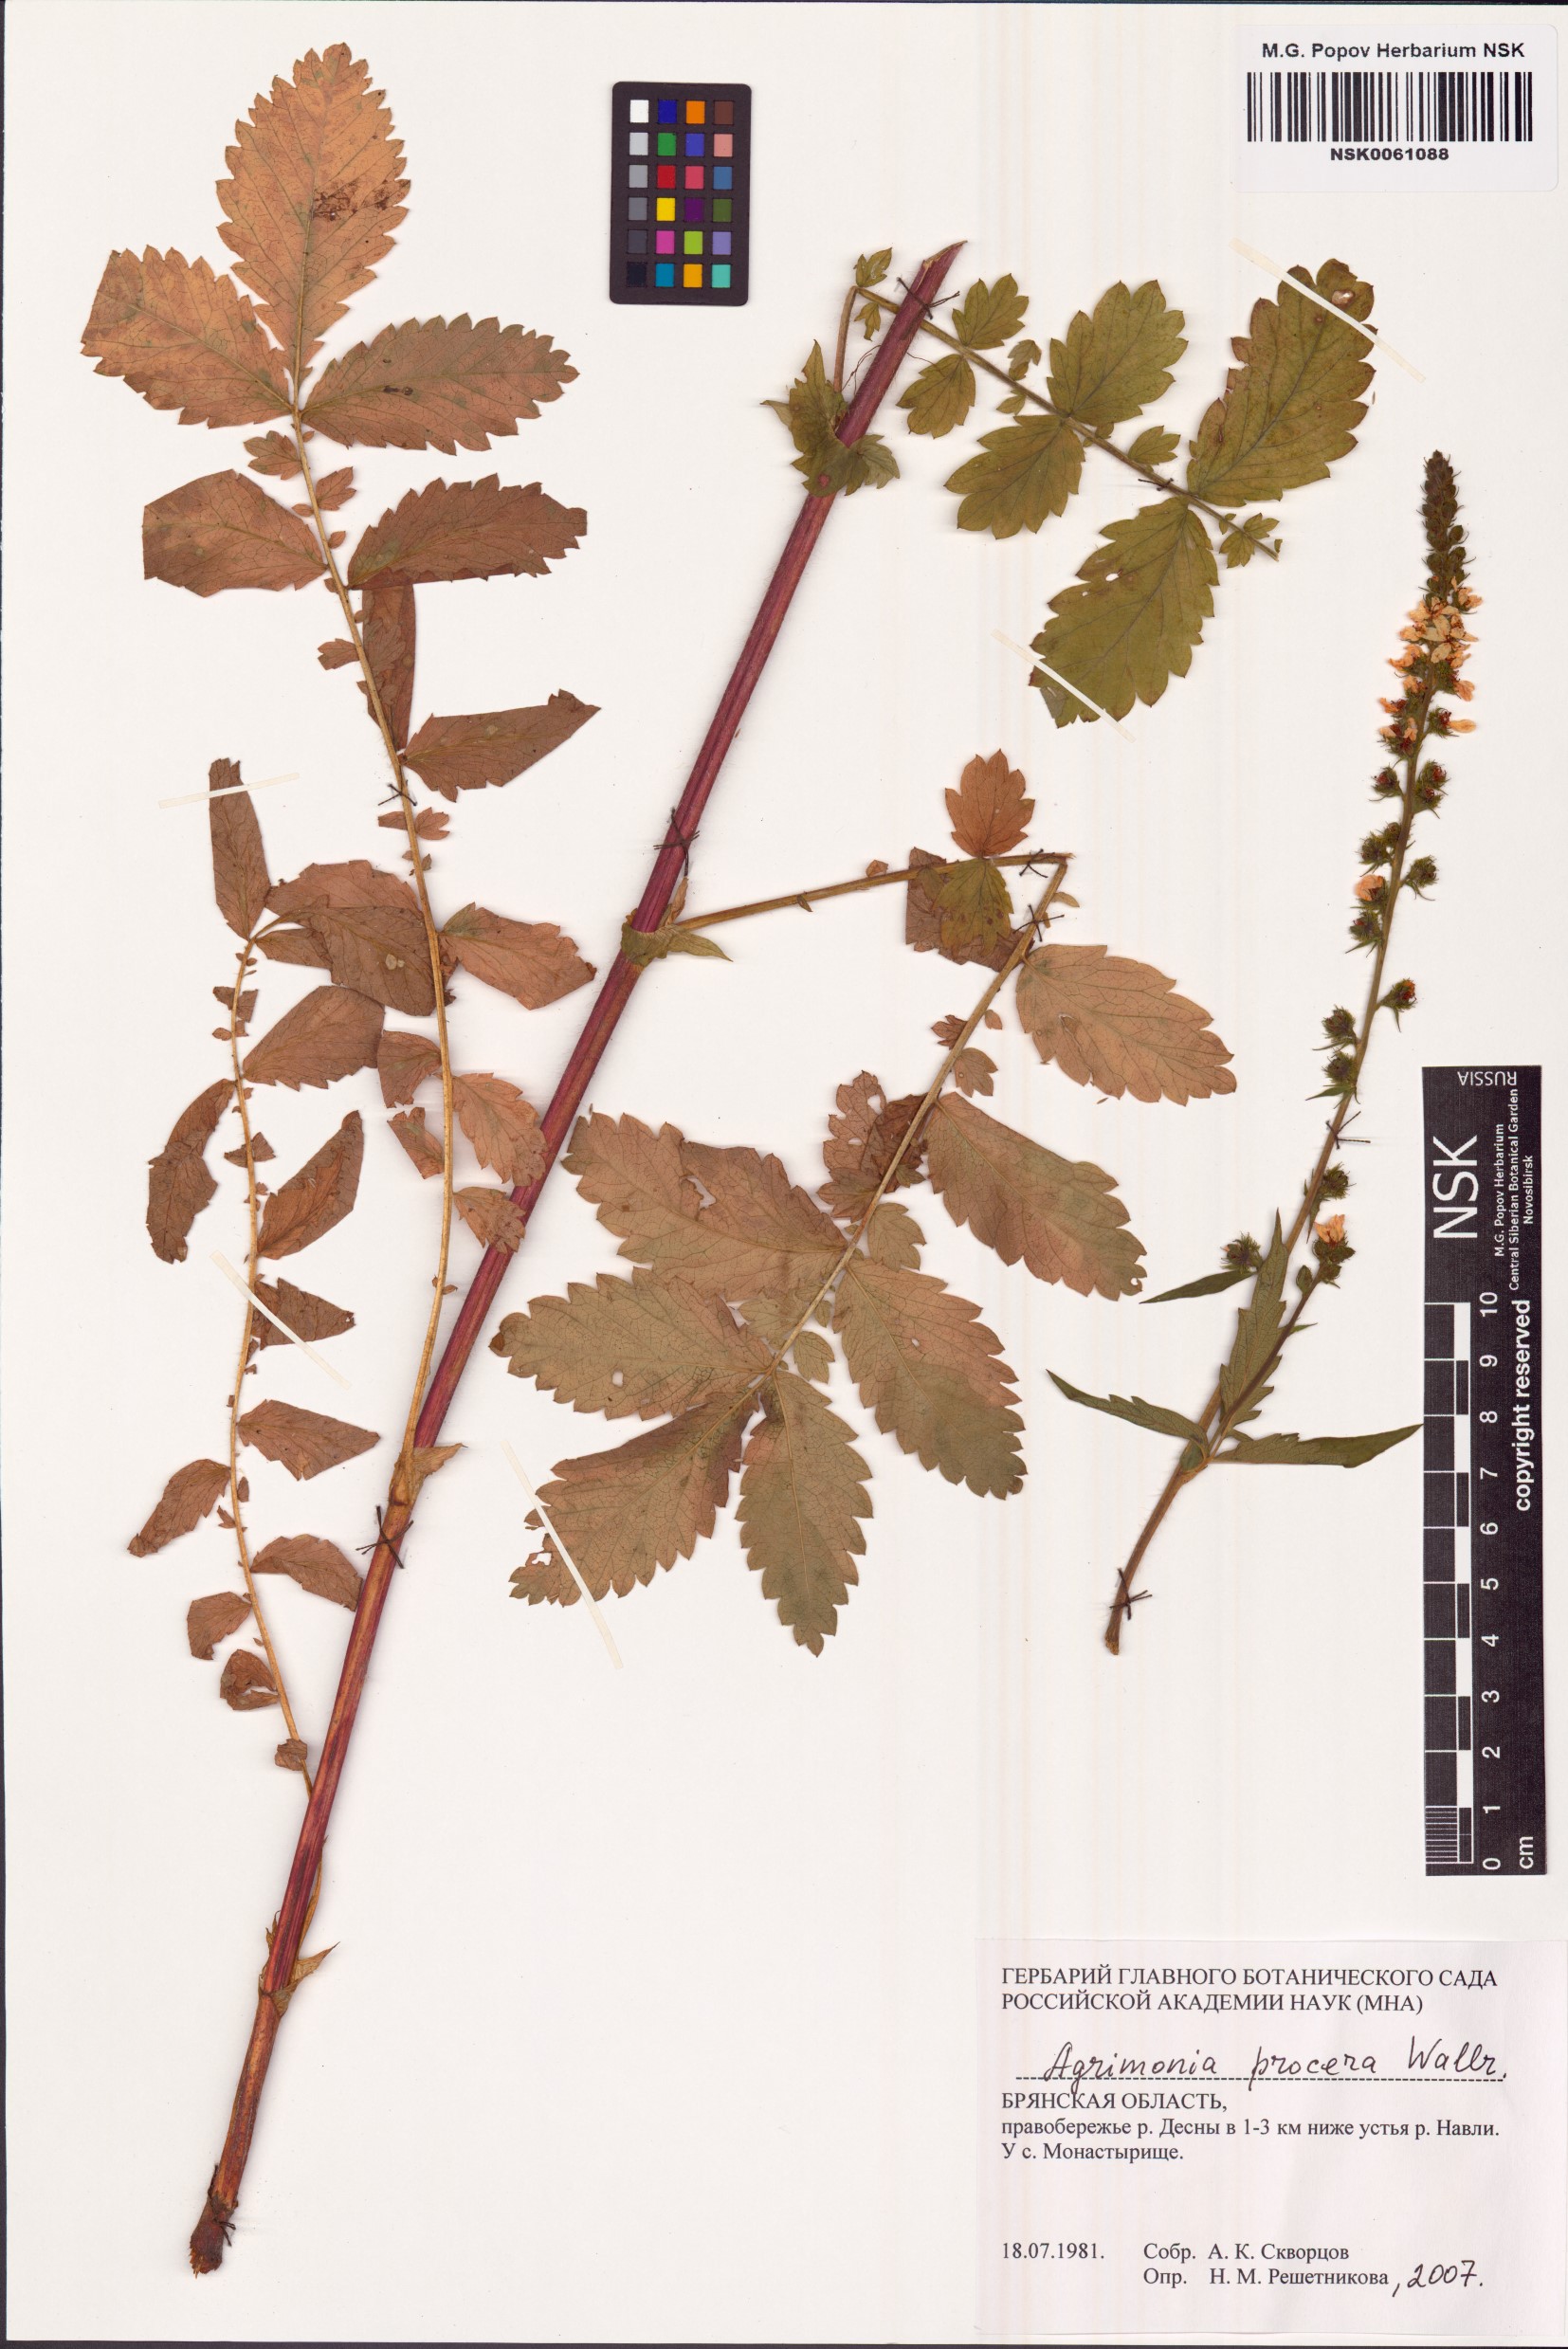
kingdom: Plantae
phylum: Tracheophyta
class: Magnoliopsida
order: Rosales
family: Rosaceae
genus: Agrimonia
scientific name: Agrimonia procera
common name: Fragrant agrimony
